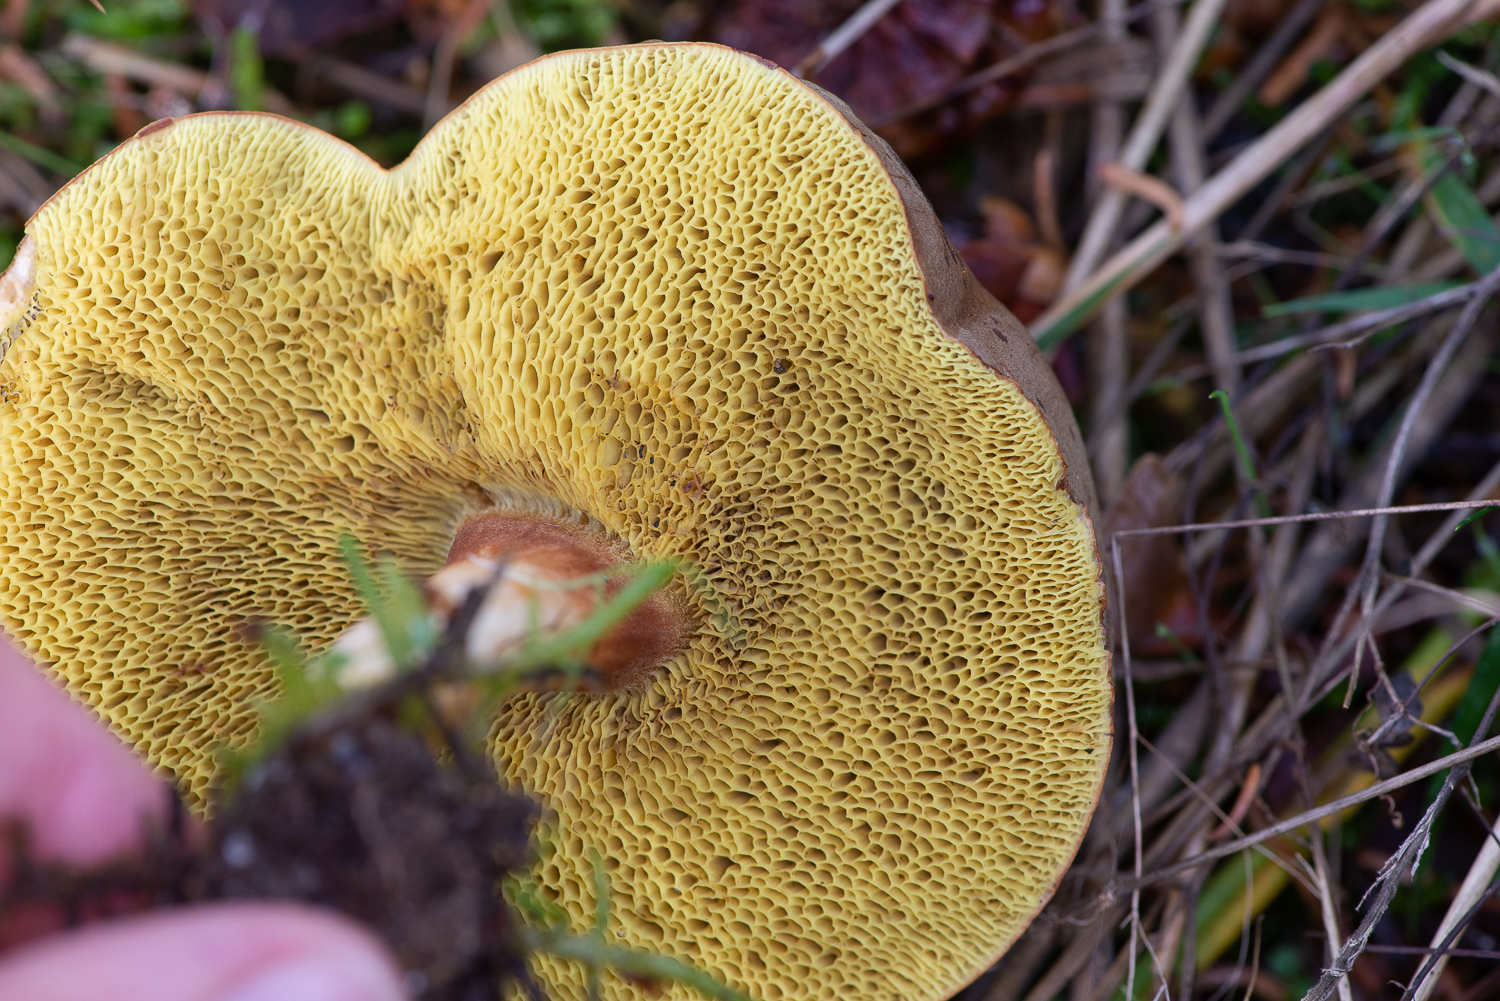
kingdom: Fungi
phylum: Basidiomycota
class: Agaricomycetes
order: Boletales
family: Boletaceae
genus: Xerocomus
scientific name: Xerocomus ferrugineus
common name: vaskeskinds-rørhat
